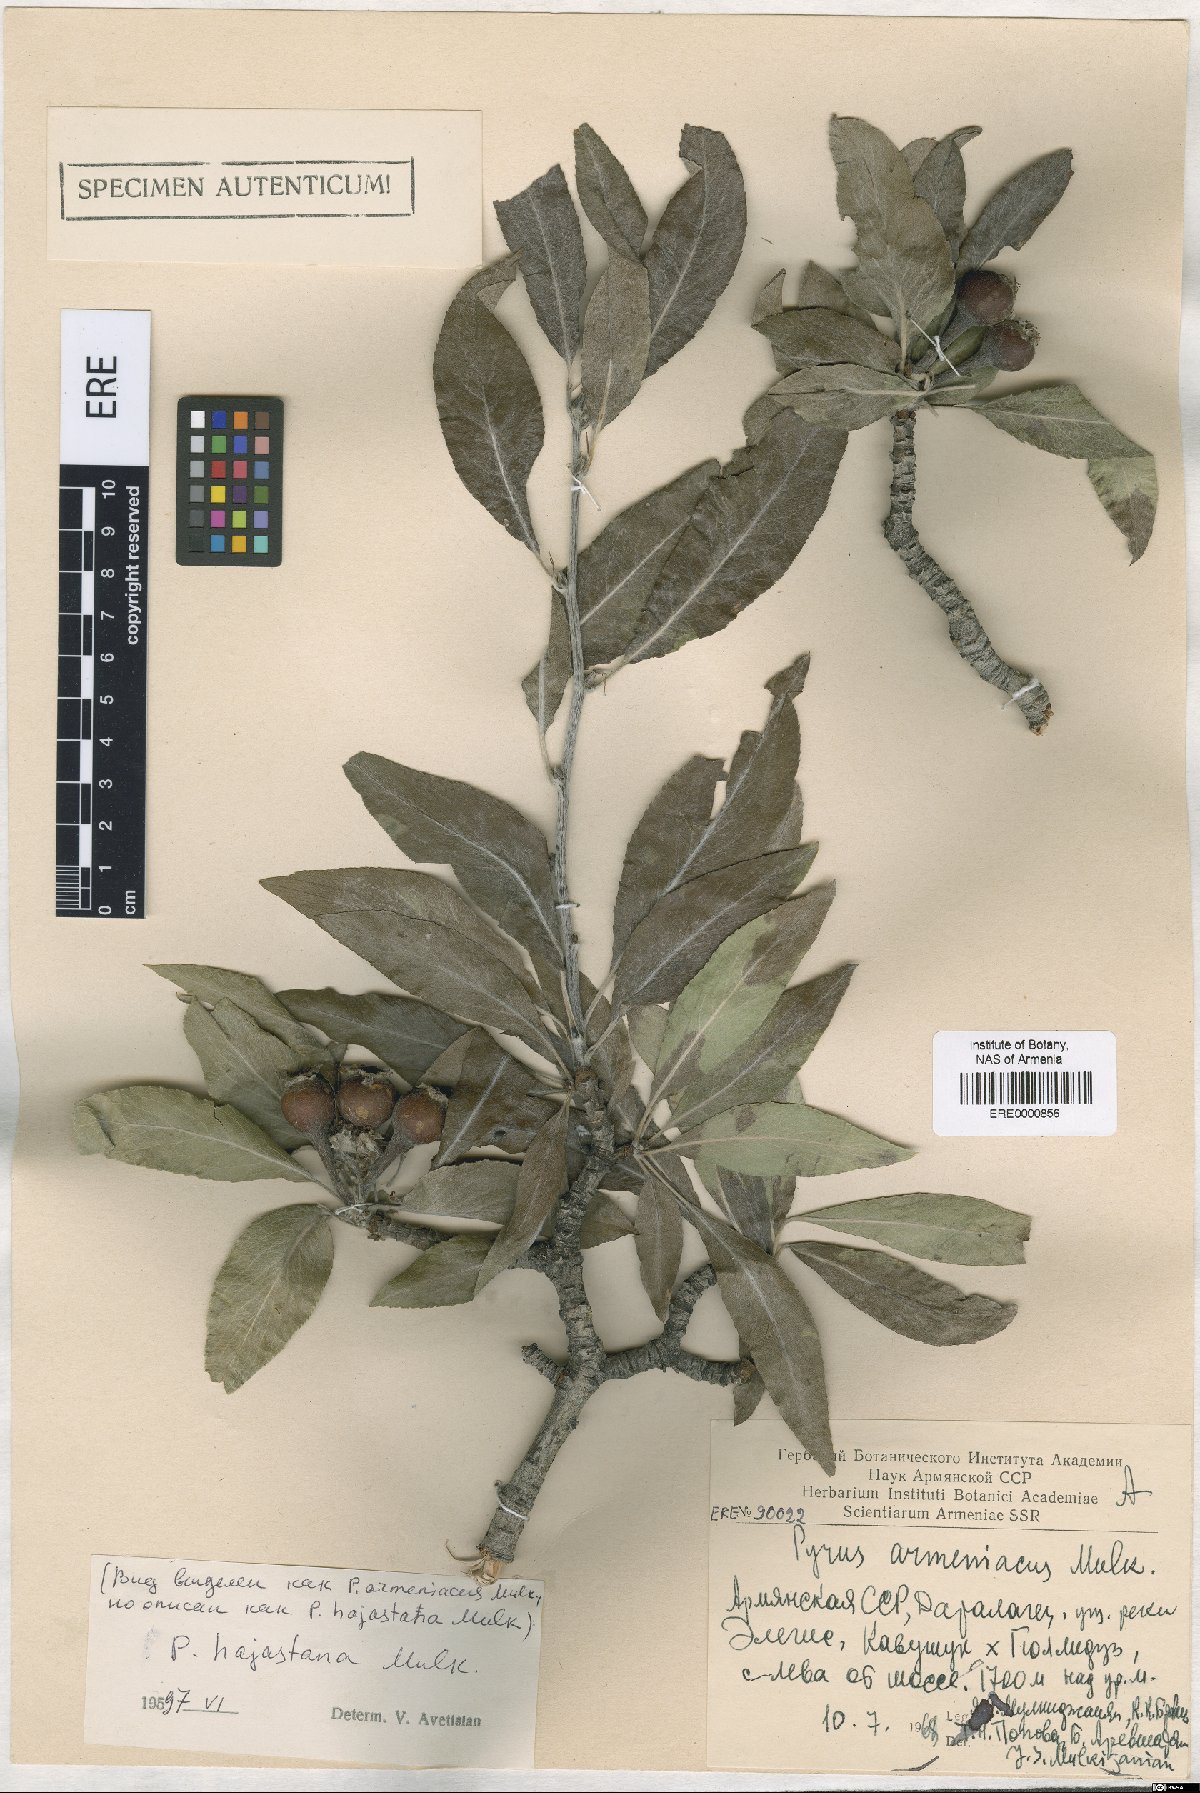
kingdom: Plantae
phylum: Tracheophyta
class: Magnoliopsida
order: Rosales
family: Rosaceae
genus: Pyrus
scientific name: Pyrus hajastana
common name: Hayastanyan pear
